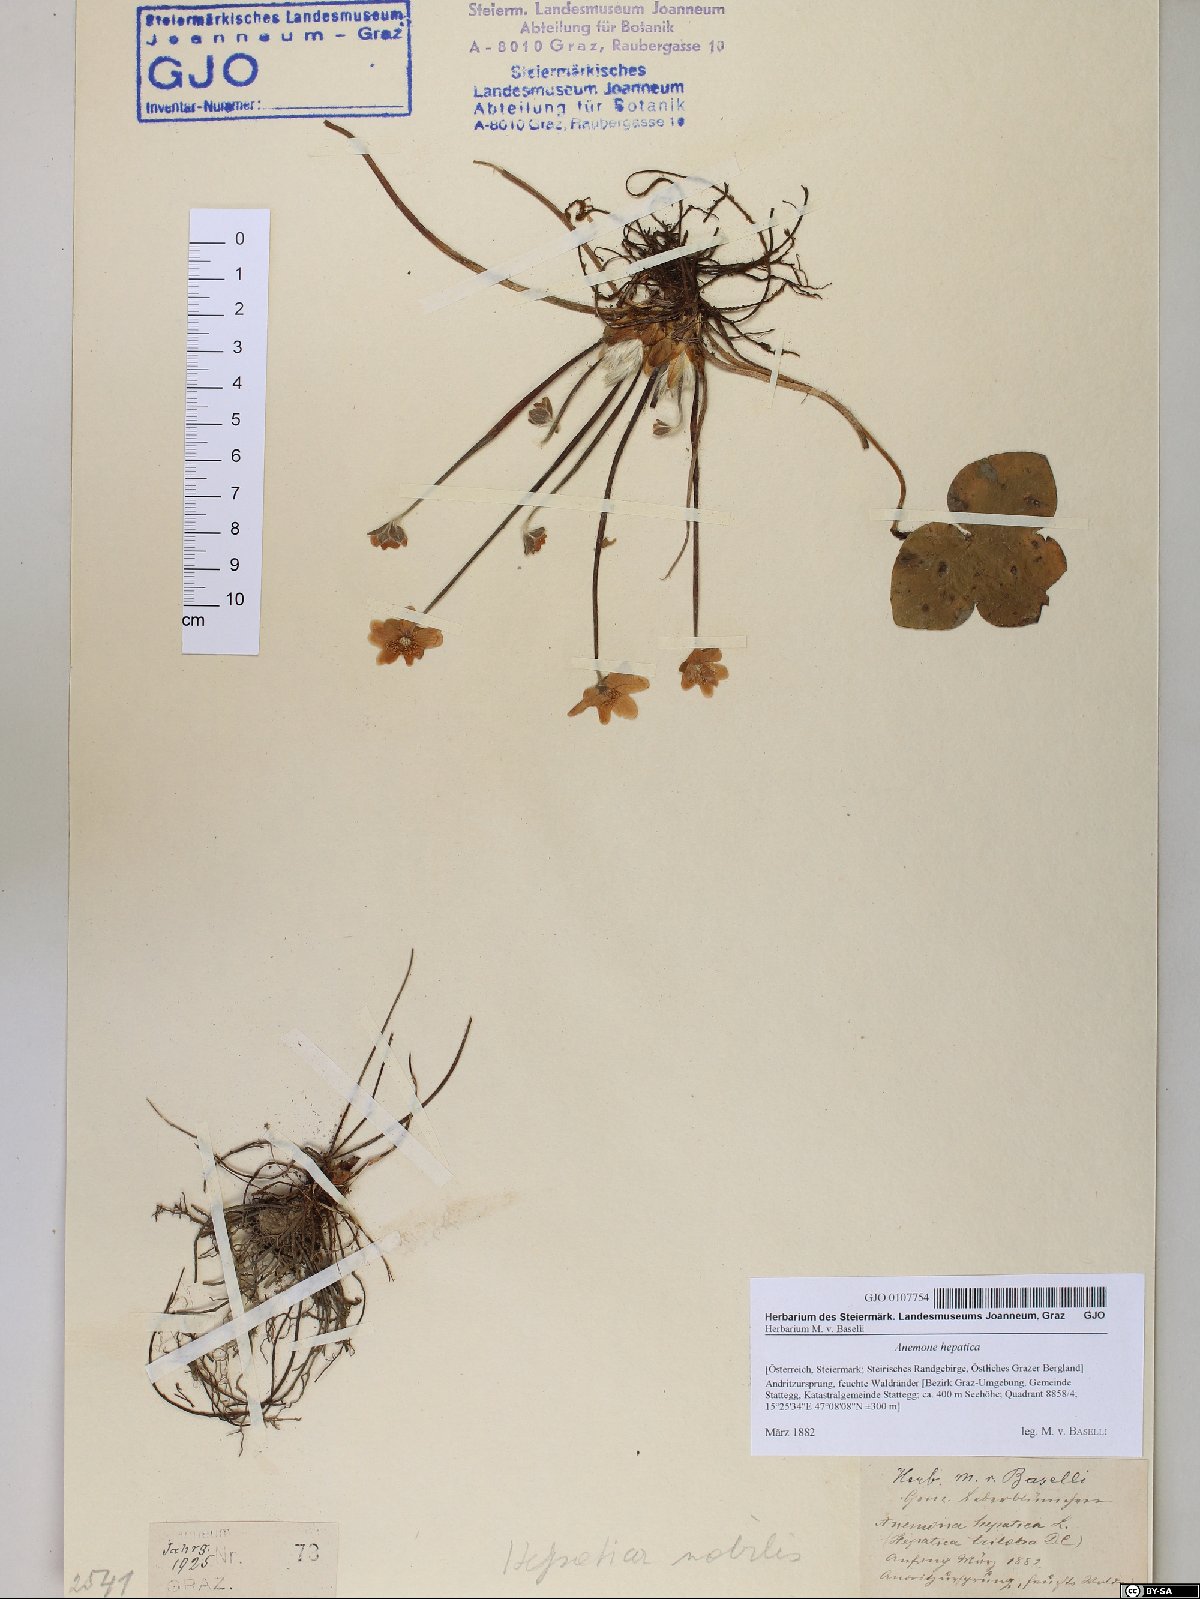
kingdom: Plantae
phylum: Tracheophyta
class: Magnoliopsida
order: Ranunculales
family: Ranunculaceae
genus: Hepatica
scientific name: Hepatica nobilis
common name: Liverleaf
